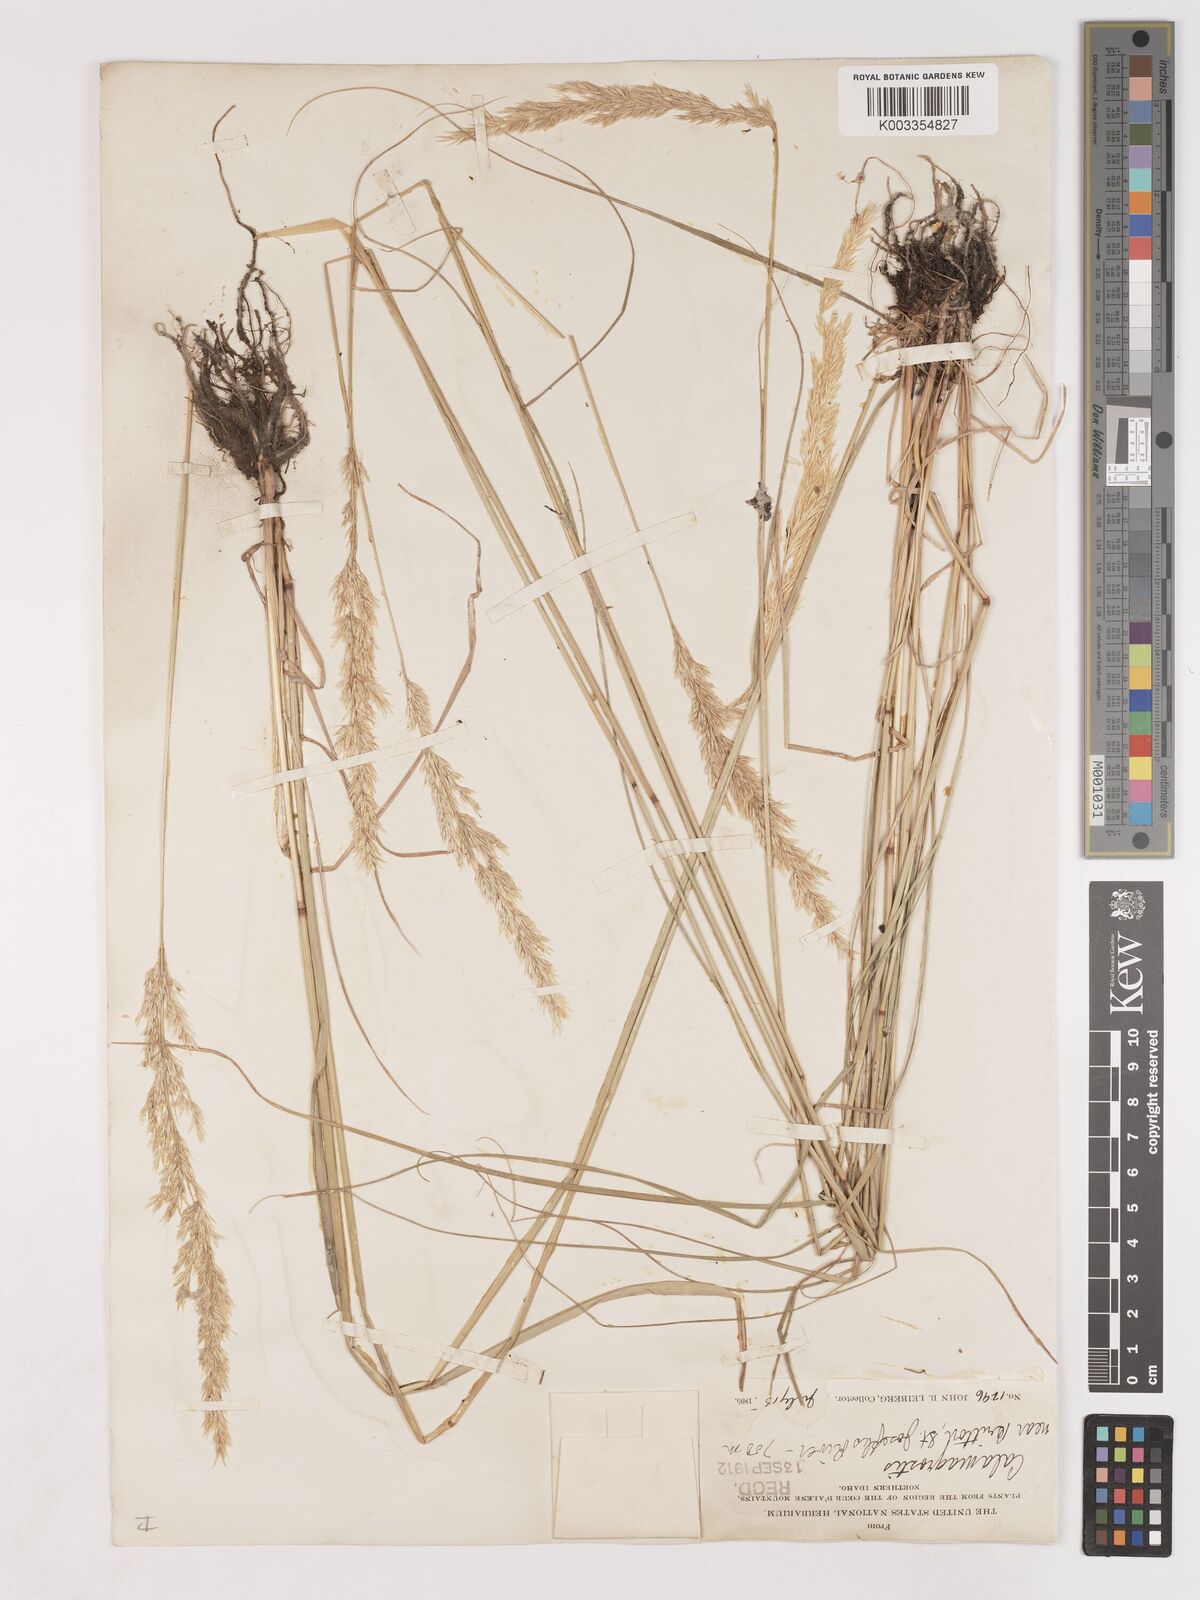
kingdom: Plantae
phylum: Tracheophyta
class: Liliopsida
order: Poales
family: Poaceae
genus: Calamagrostis
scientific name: Calamagrostis
